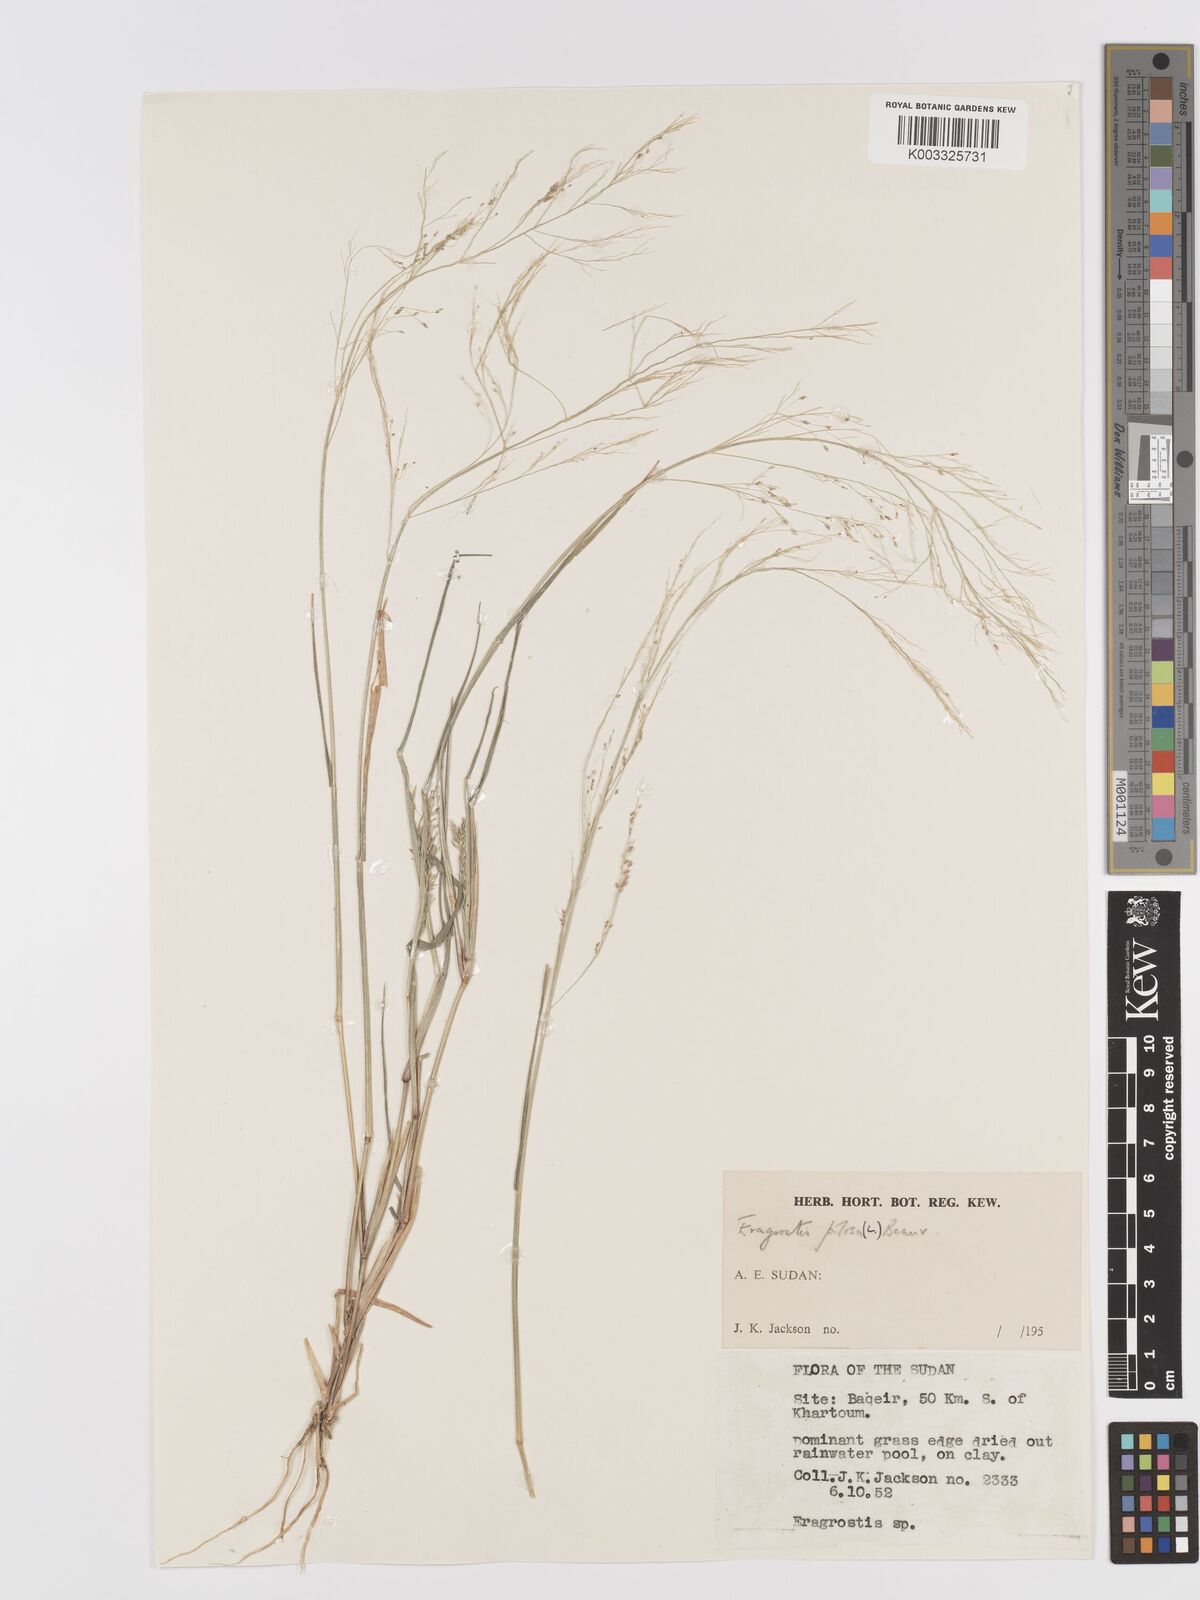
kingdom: Plantae
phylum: Tracheophyta
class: Liliopsida
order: Poales
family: Poaceae
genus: Eragrostis
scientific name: Eragrostis pilosa
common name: Indian lovegrass
